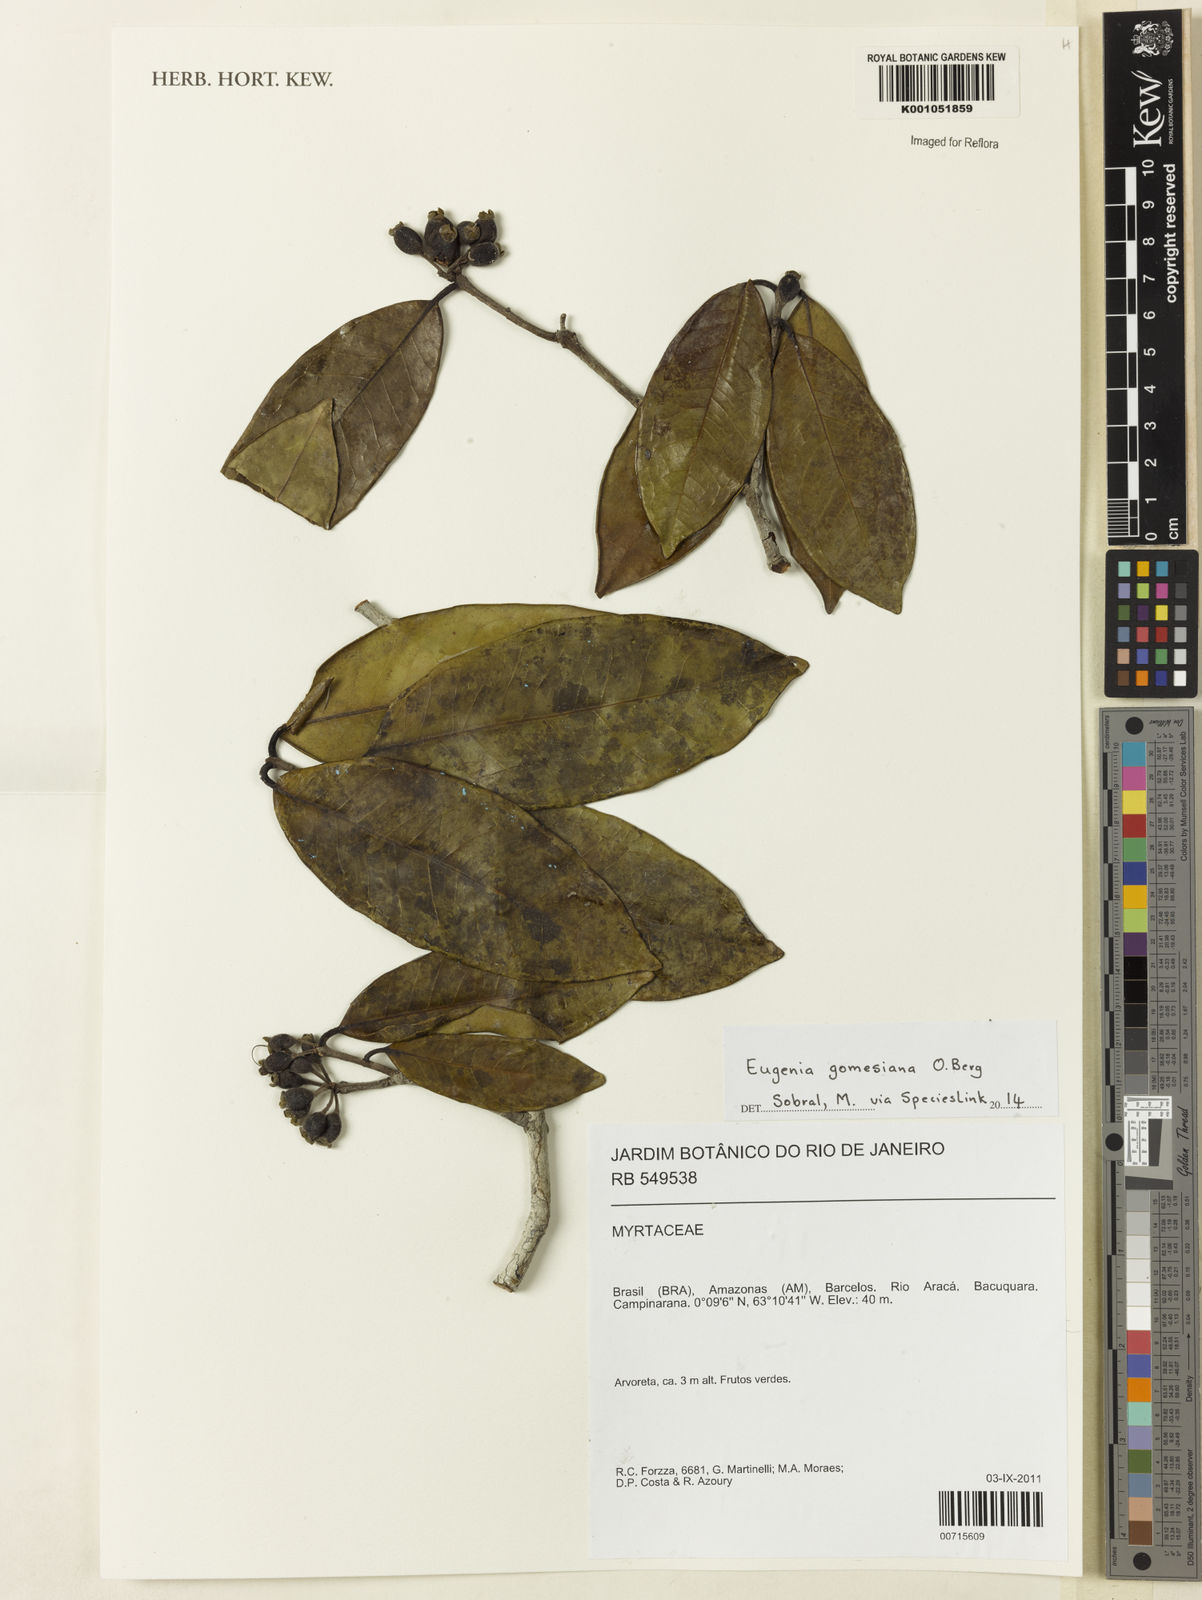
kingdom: Plantae
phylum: Tracheophyta
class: Magnoliopsida
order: Myrtales
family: Myrtaceae
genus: Eugenia
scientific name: Eugenia gomesiana
